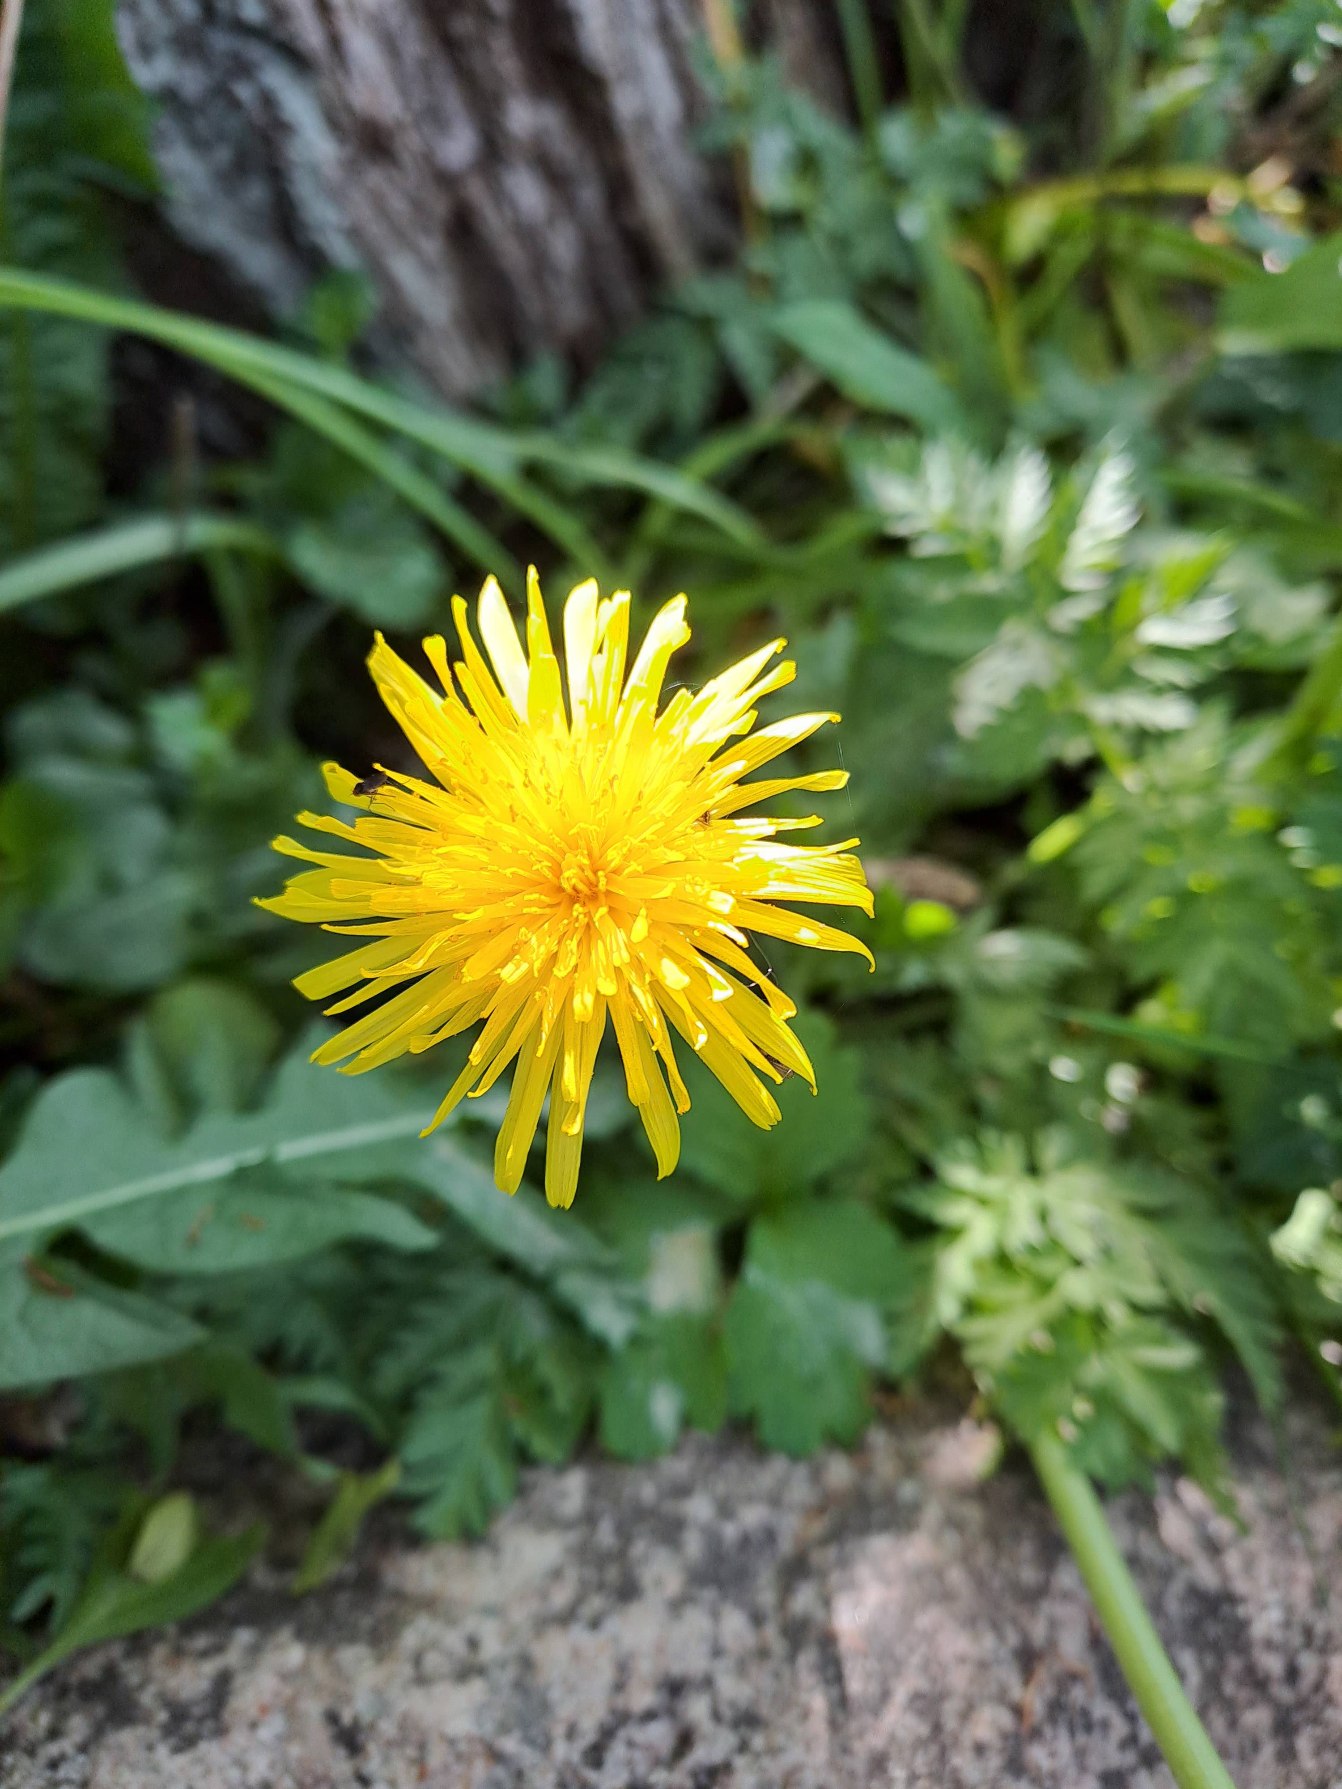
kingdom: Plantae
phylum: Tracheophyta
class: Magnoliopsida
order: Asterales
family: Asteraceae
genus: Taraxacum
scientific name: Taraxacum
